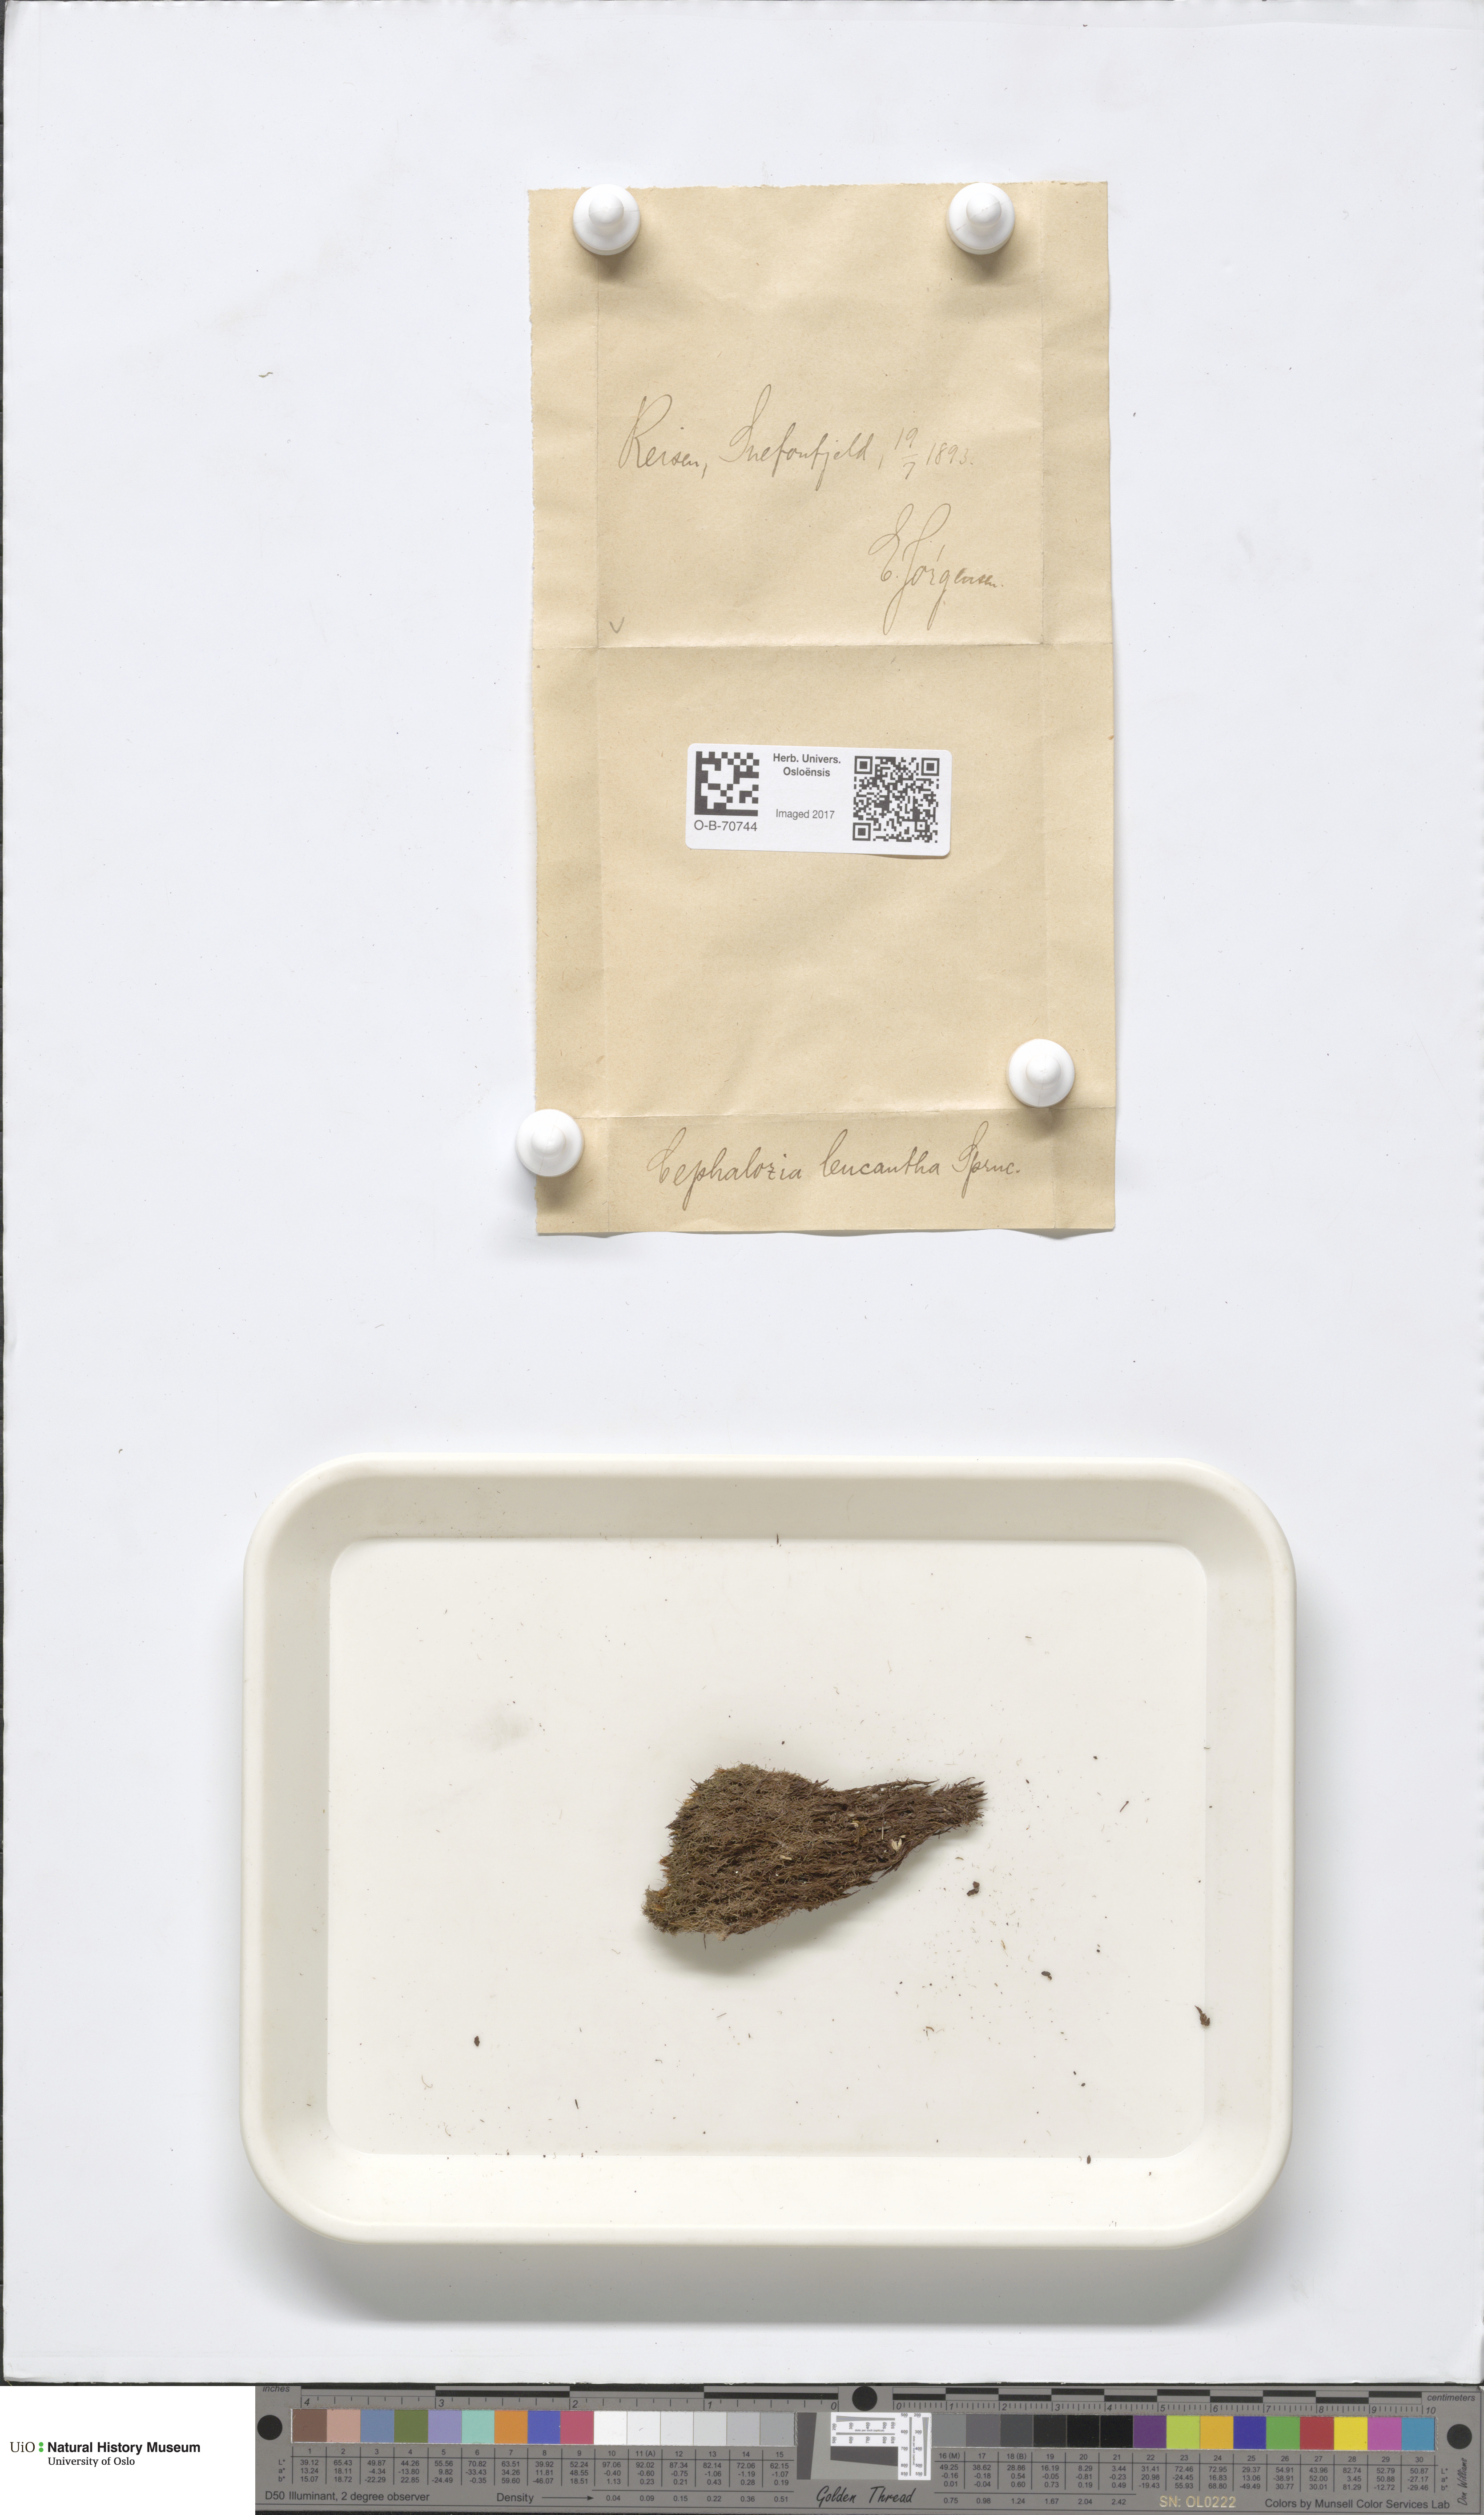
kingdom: Plantae
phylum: Marchantiophyta
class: Jungermanniopsida
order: Jungermanniales
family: Cephaloziaceae
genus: Fuscocephaloziopsis
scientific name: Fuscocephaloziopsis leucantha
